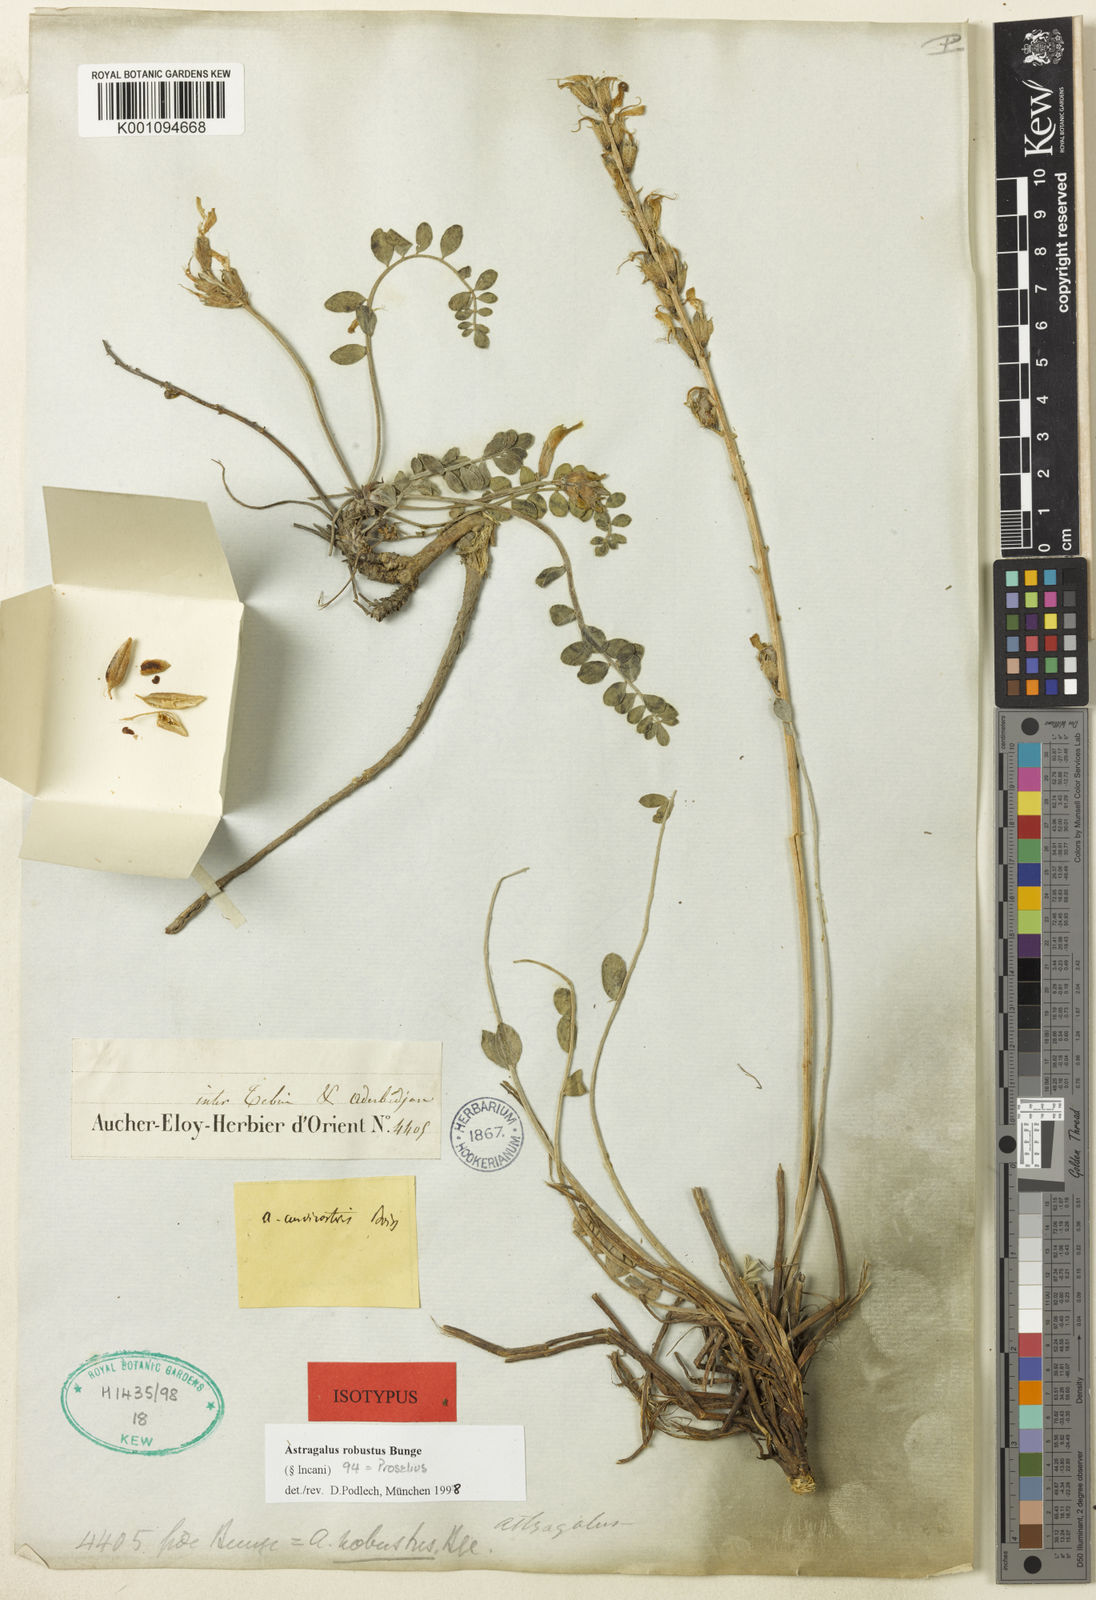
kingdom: Plantae
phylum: Tracheophyta
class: Magnoliopsida
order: Fabales
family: Fabaceae
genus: Astragalus
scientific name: Astragalus
